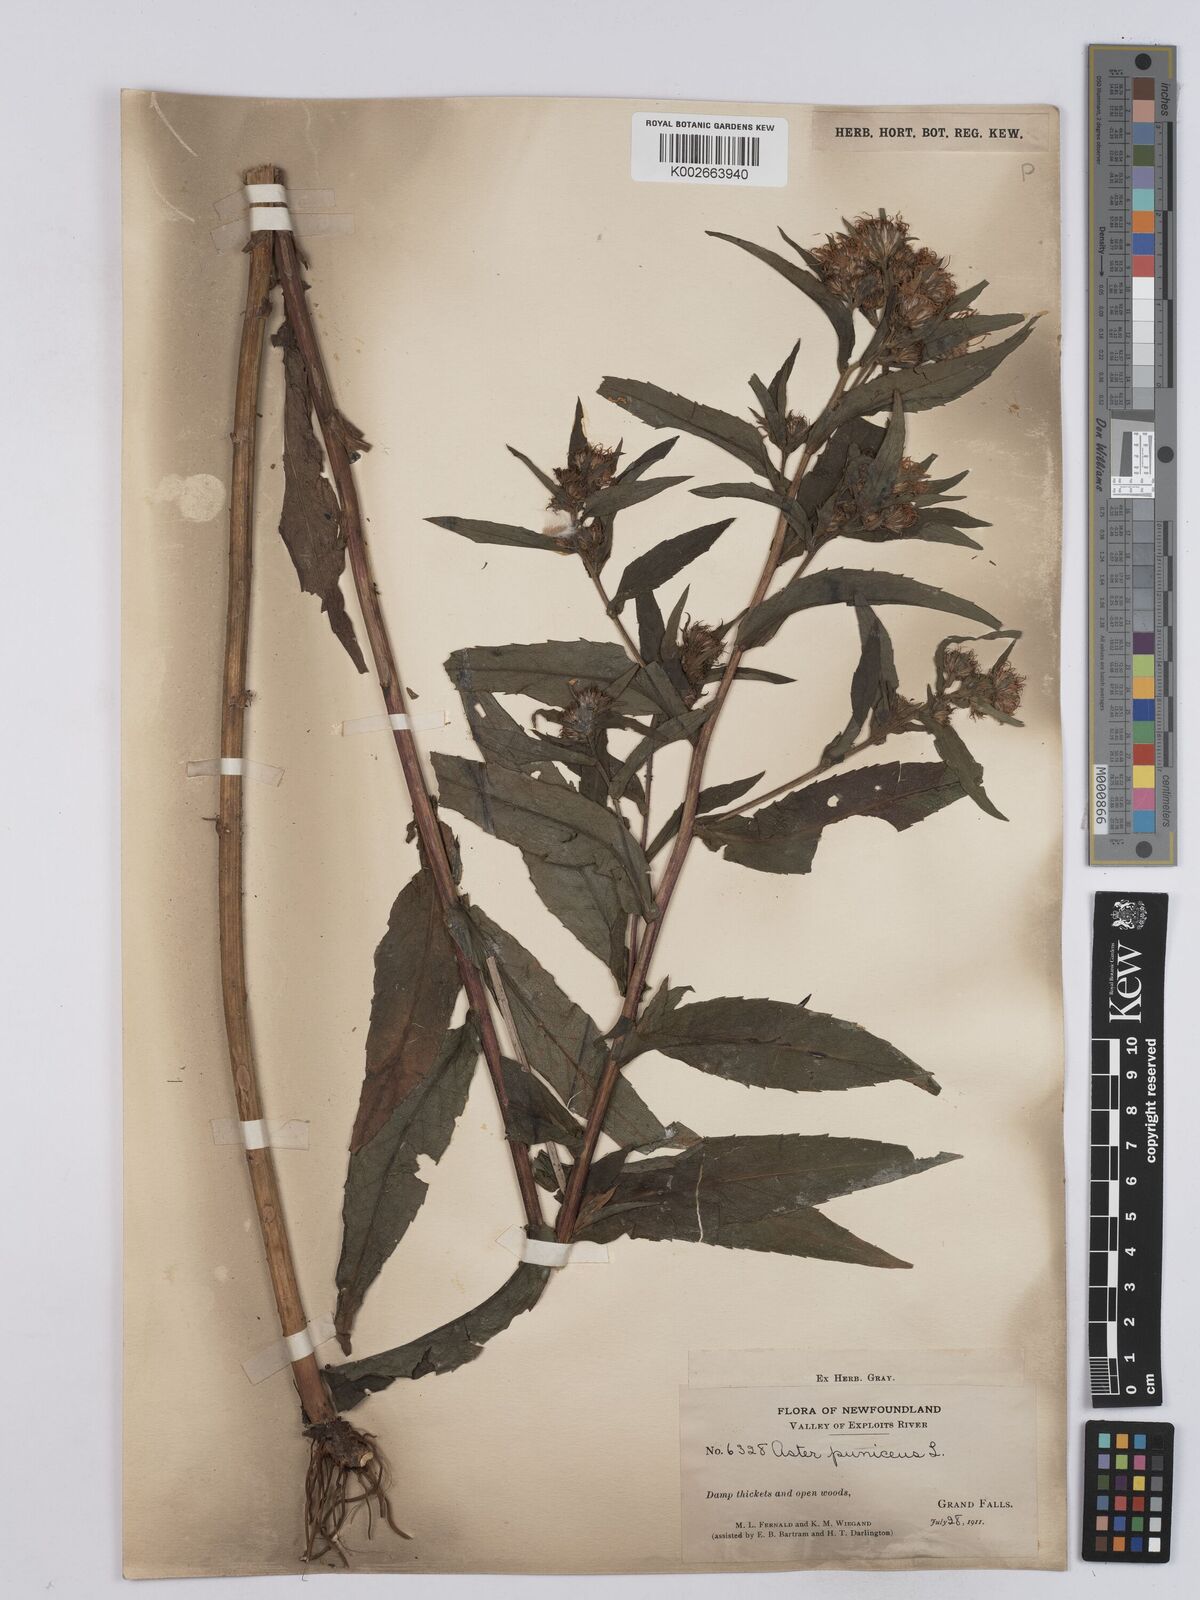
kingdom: Plantae
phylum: Tracheophyta
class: Magnoliopsida
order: Asterales
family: Asteraceae
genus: Symphyotrichum
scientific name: Symphyotrichum puniceum
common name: Bog aster
